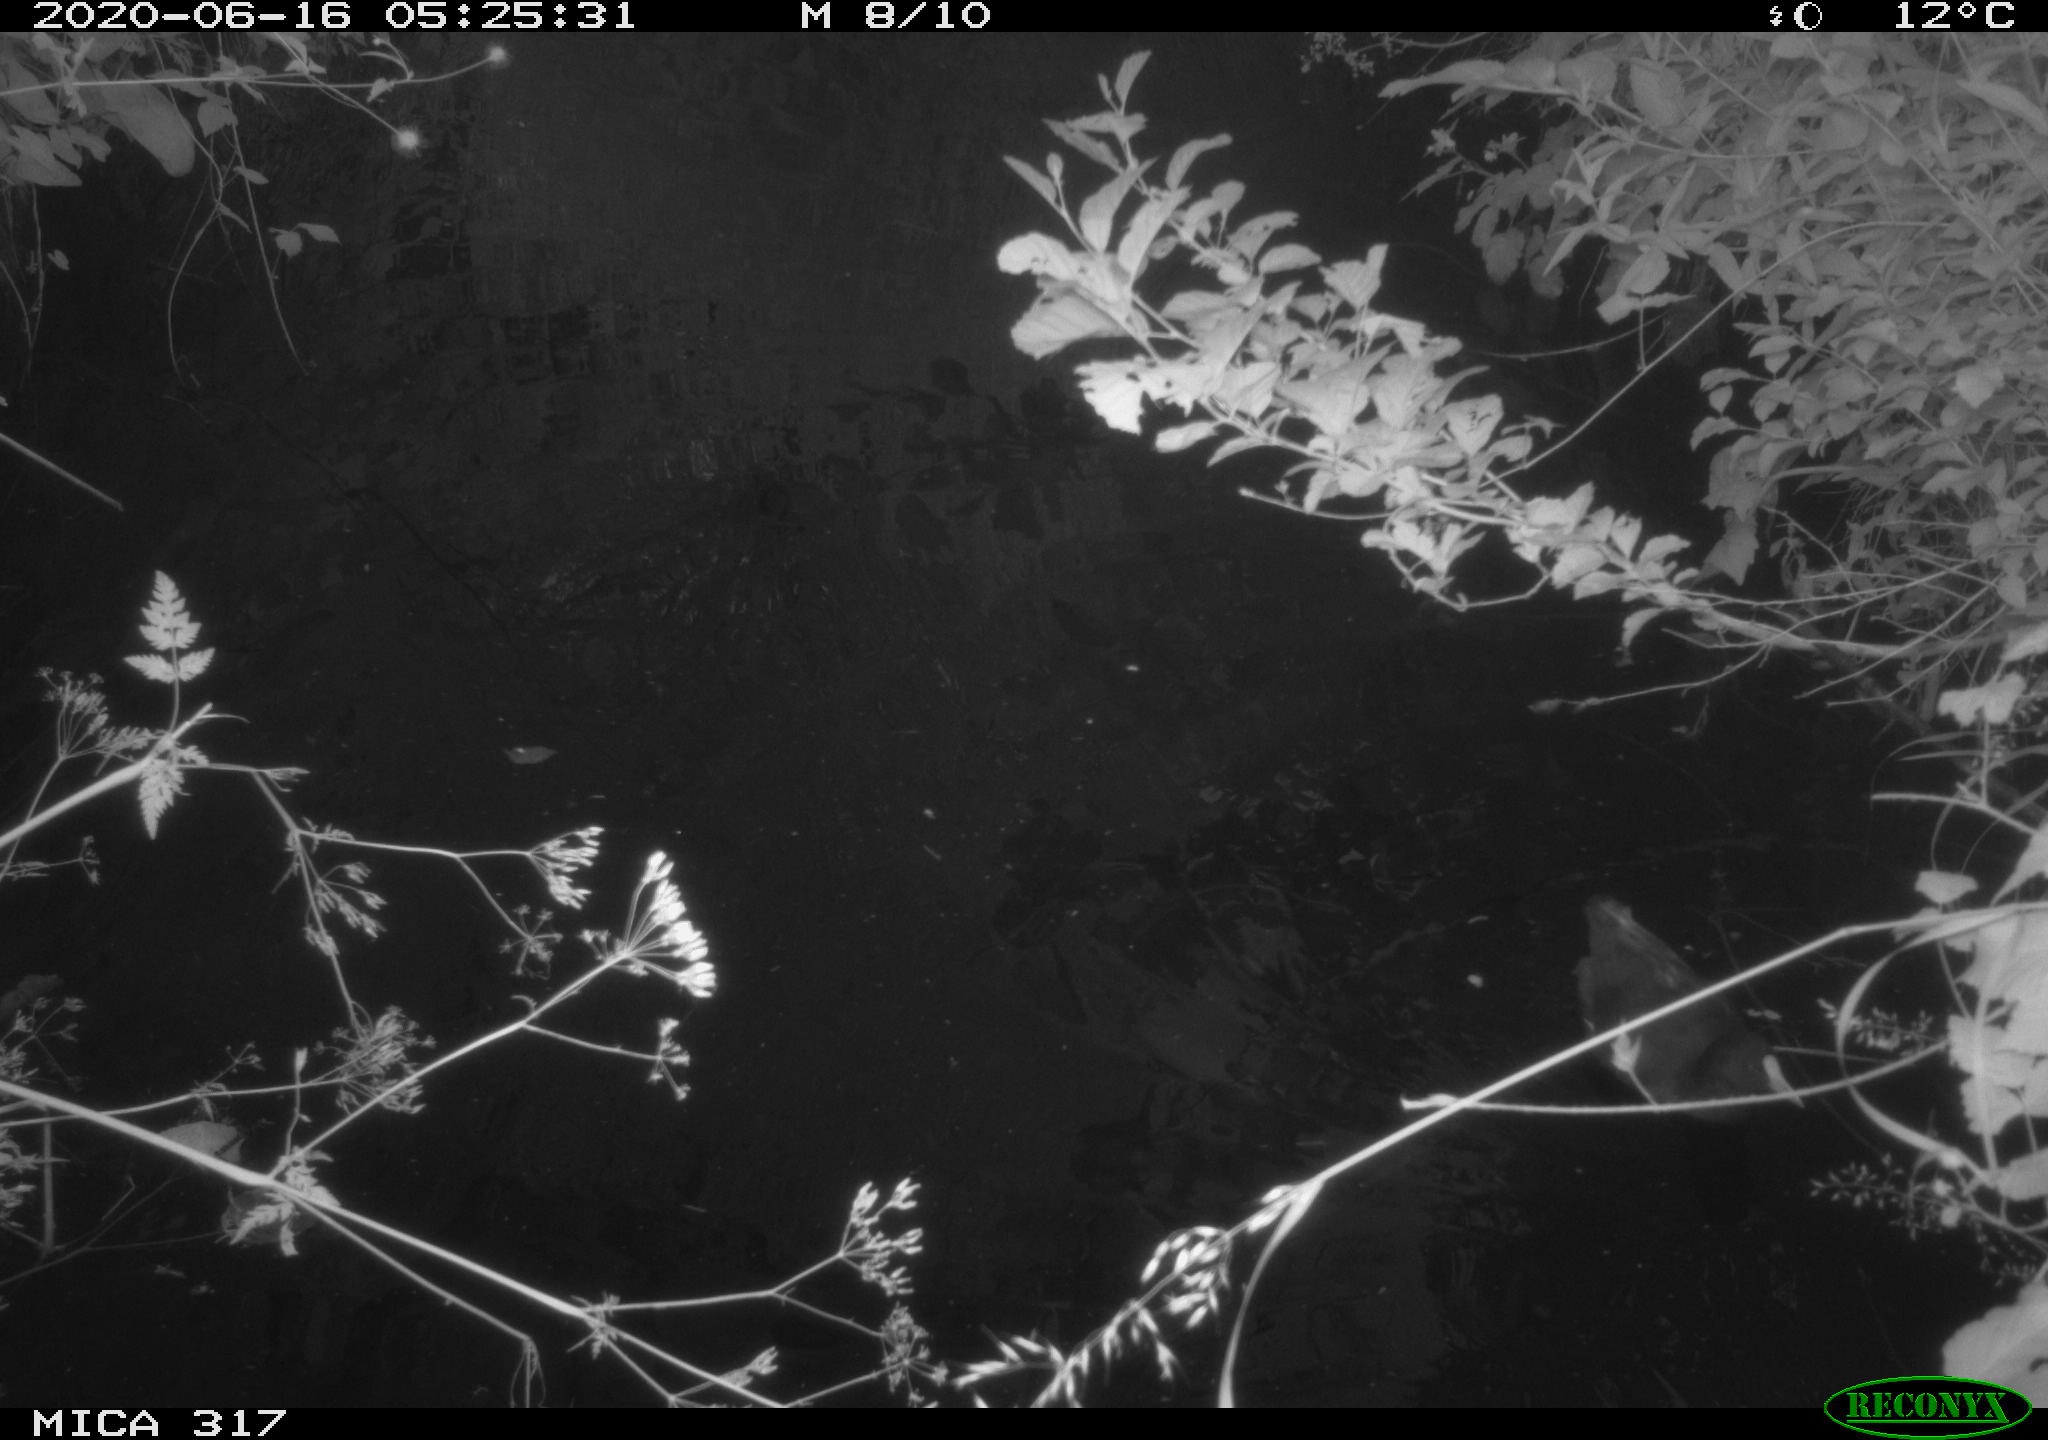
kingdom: Animalia
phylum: Chordata
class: Aves
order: Gruiformes
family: Rallidae
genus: Gallinula
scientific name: Gallinula chloropus
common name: Common moorhen
